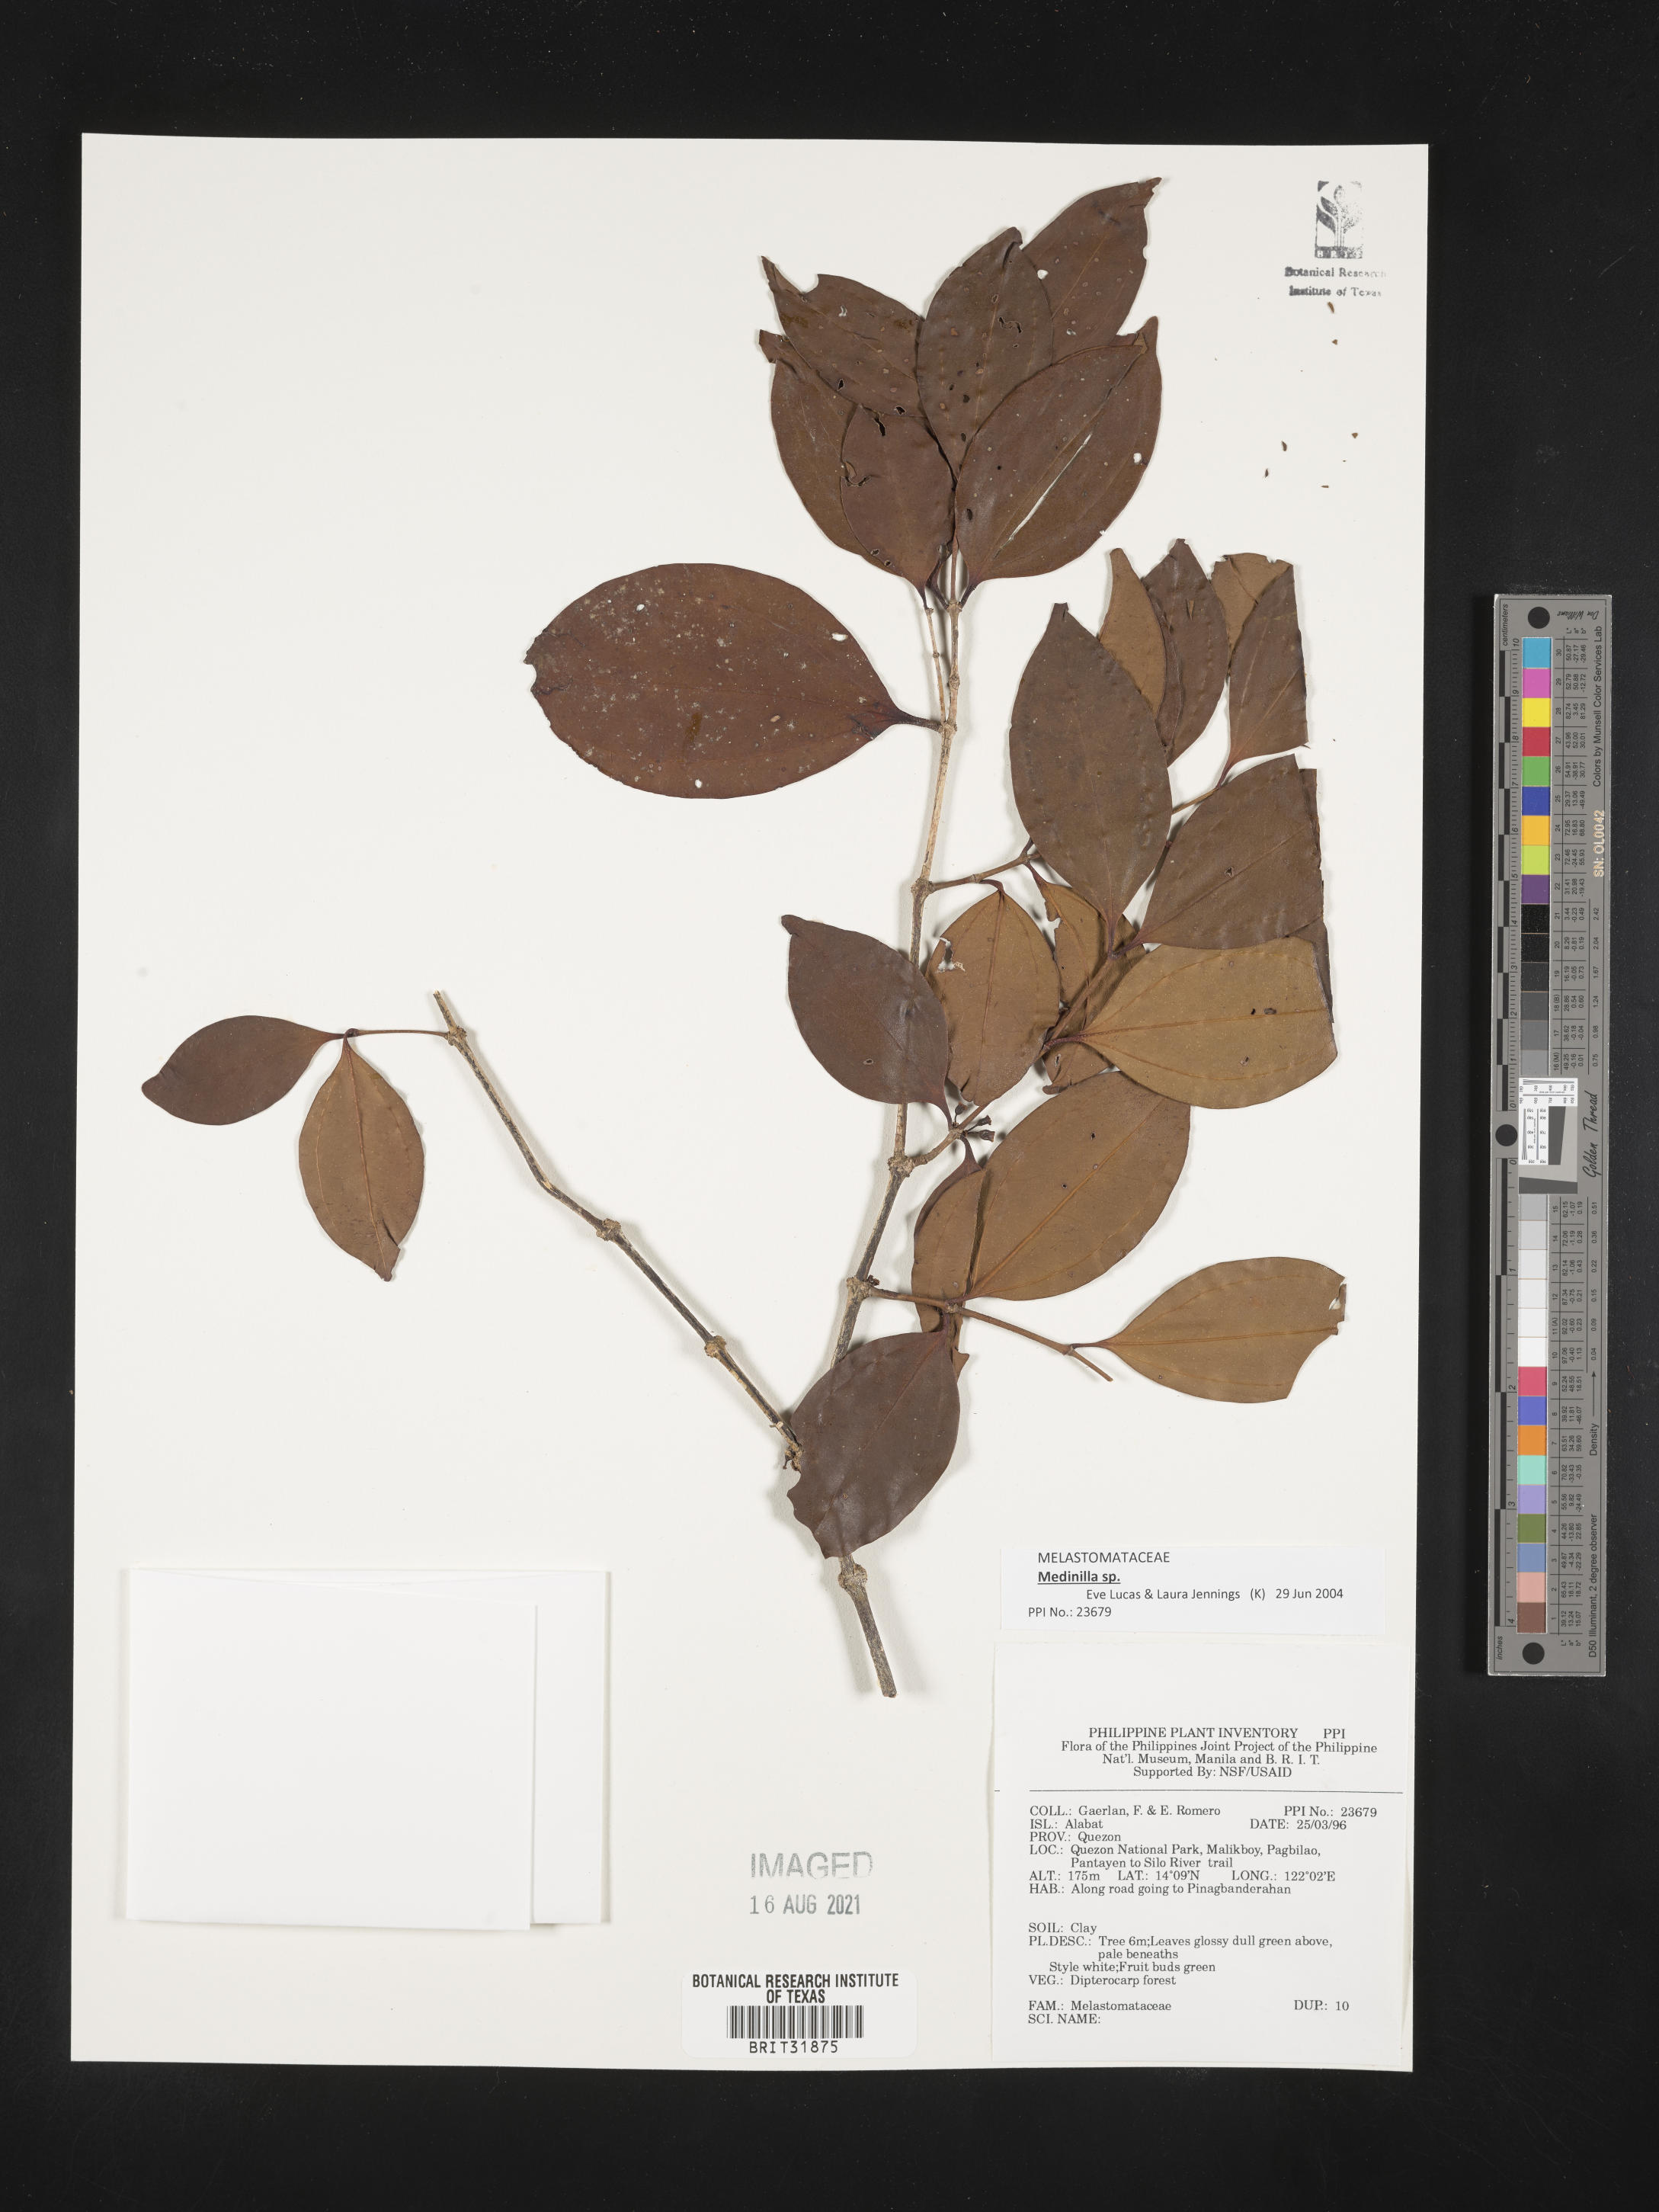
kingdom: Plantae
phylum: Tracheophyta
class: Magnoliopsida
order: Myrtales
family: Melastomataceae
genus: Medinilla
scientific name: Medinilla
